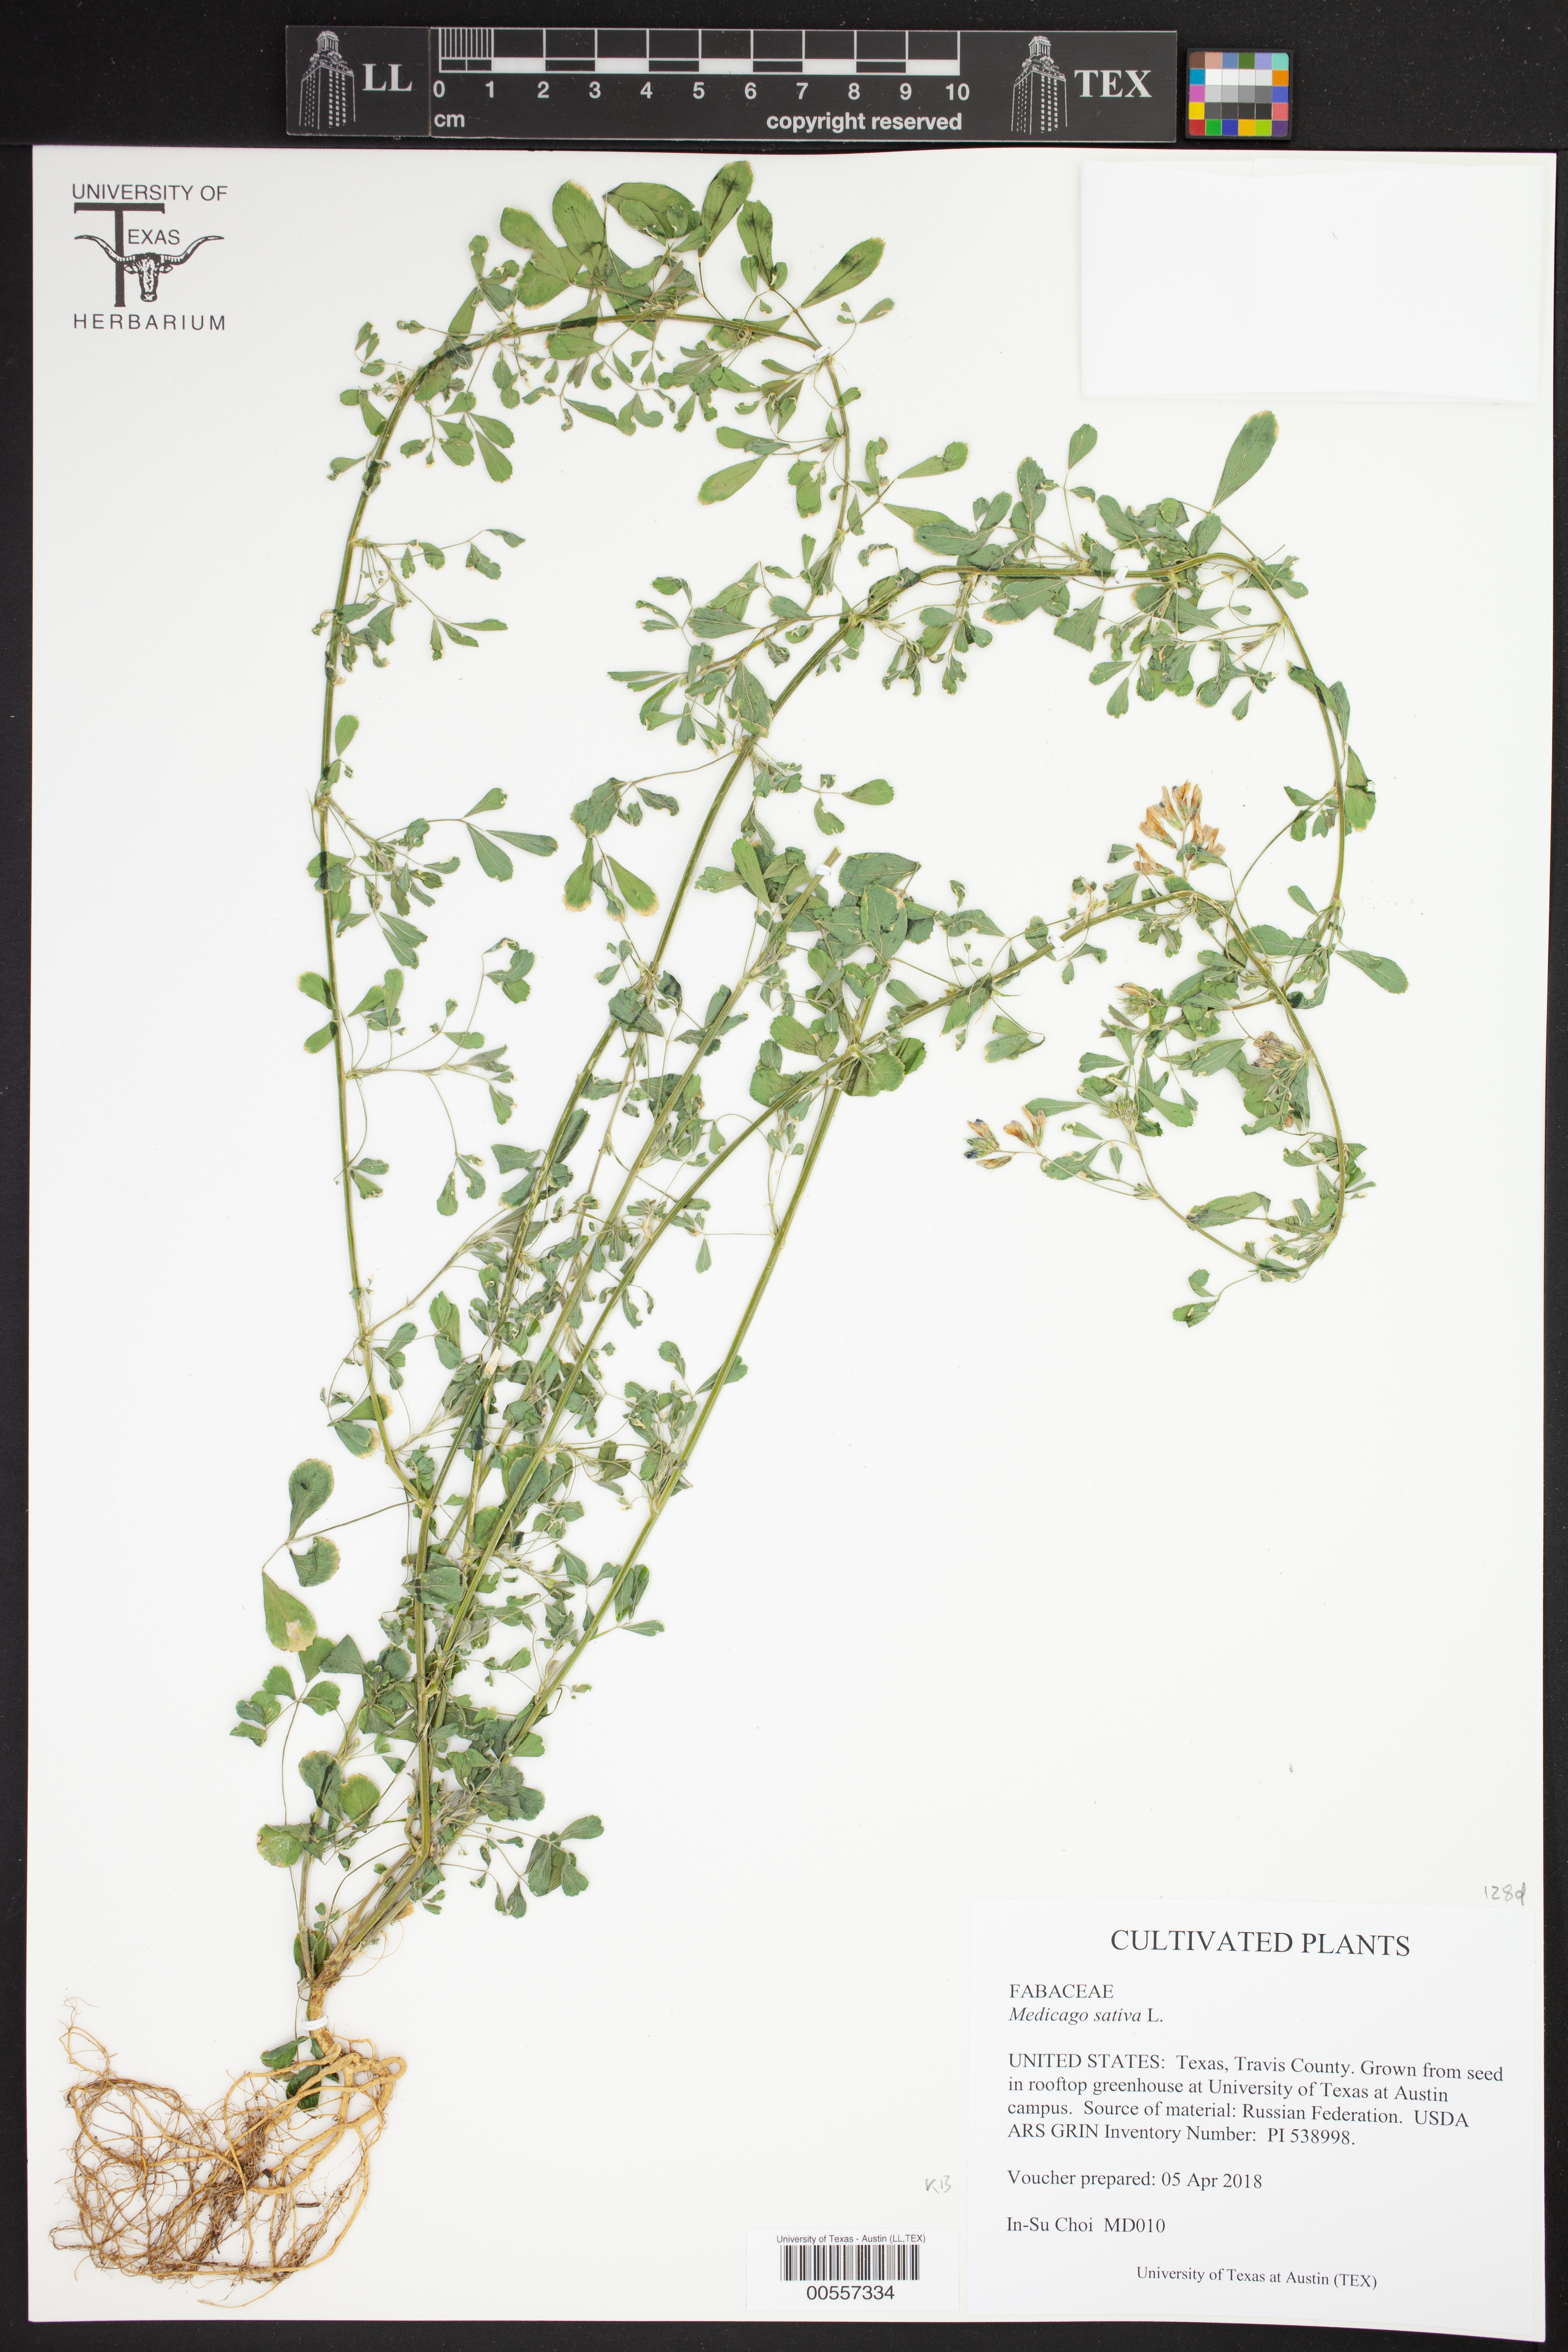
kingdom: Plantae
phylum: Tracheophyta
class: Magnoliopsida
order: Fabales
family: Fabaceae
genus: Medicago
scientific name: Medicago sativa
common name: Alfalfa
